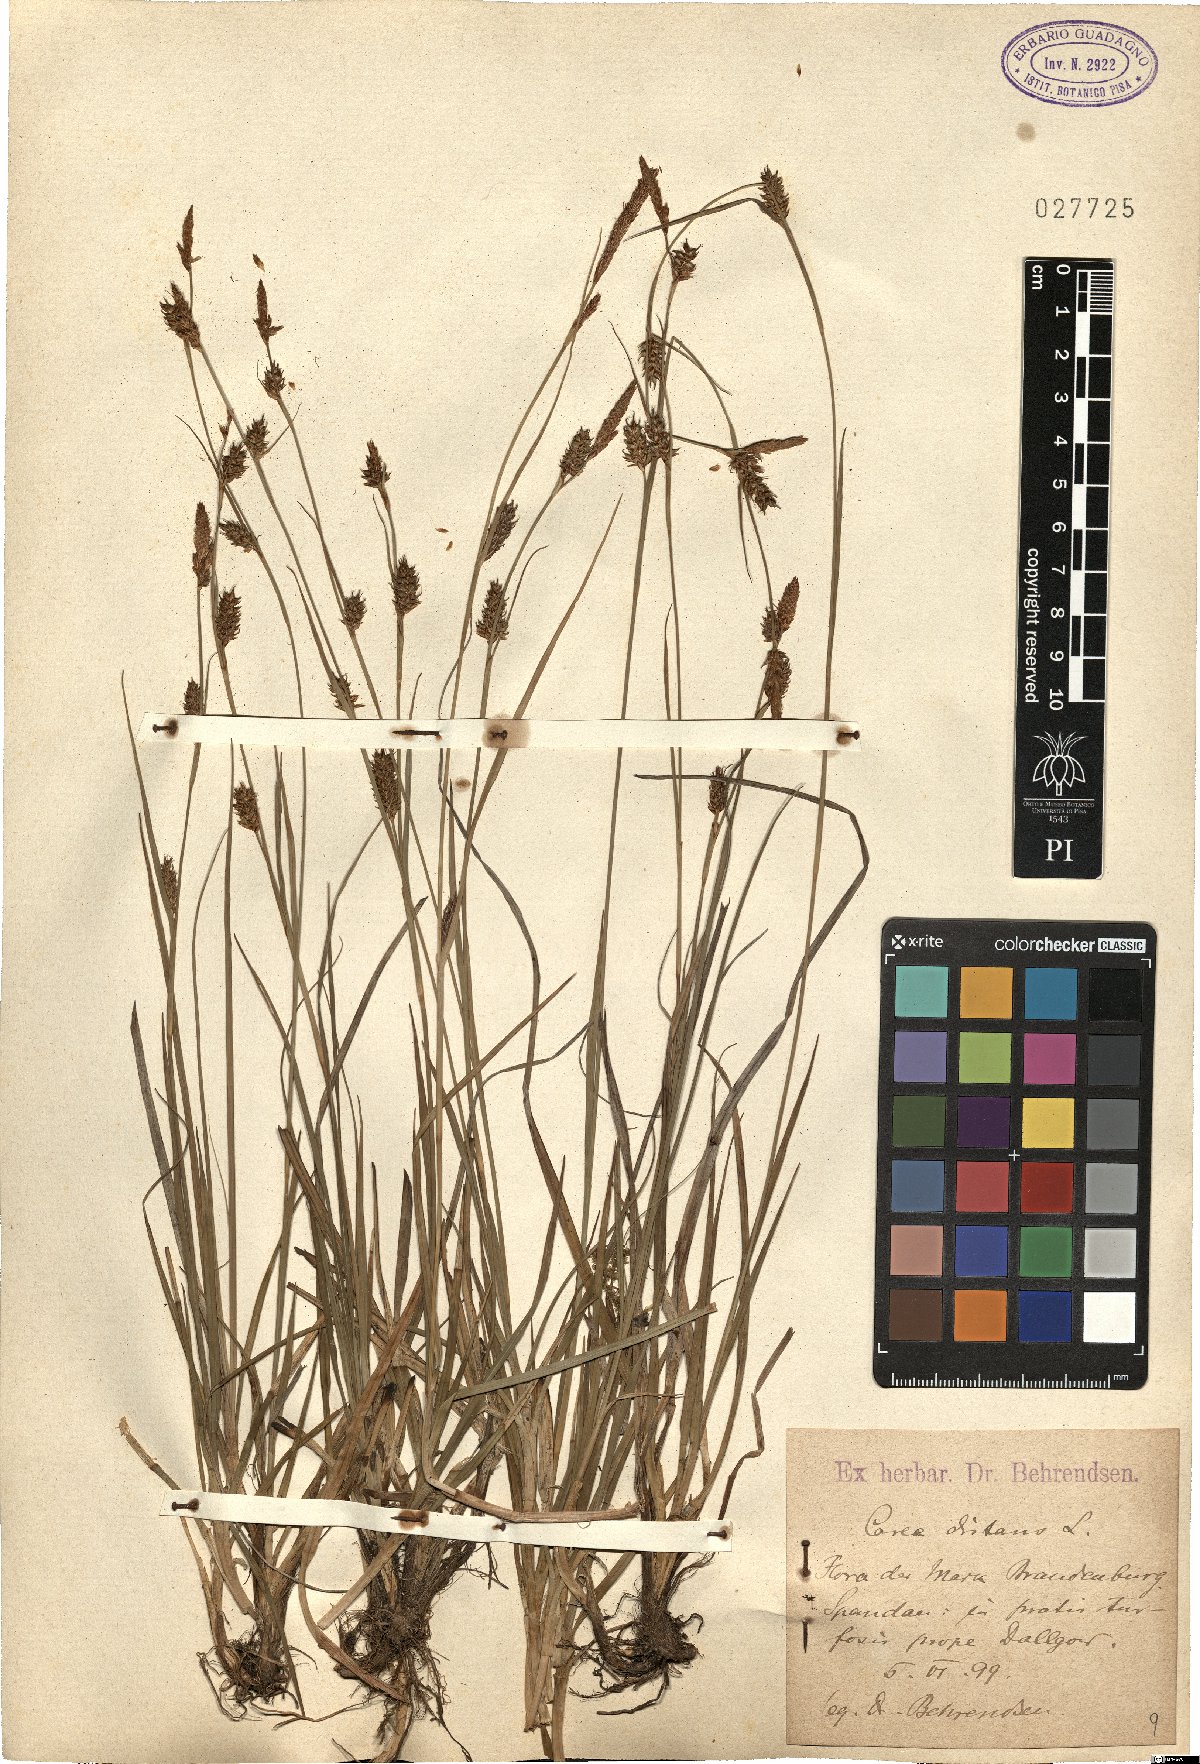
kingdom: Plantae
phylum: Tracheophyta
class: Liliopsida
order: Poales
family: Cyperaceae
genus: Carex
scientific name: Carex distans
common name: Distant sedge
